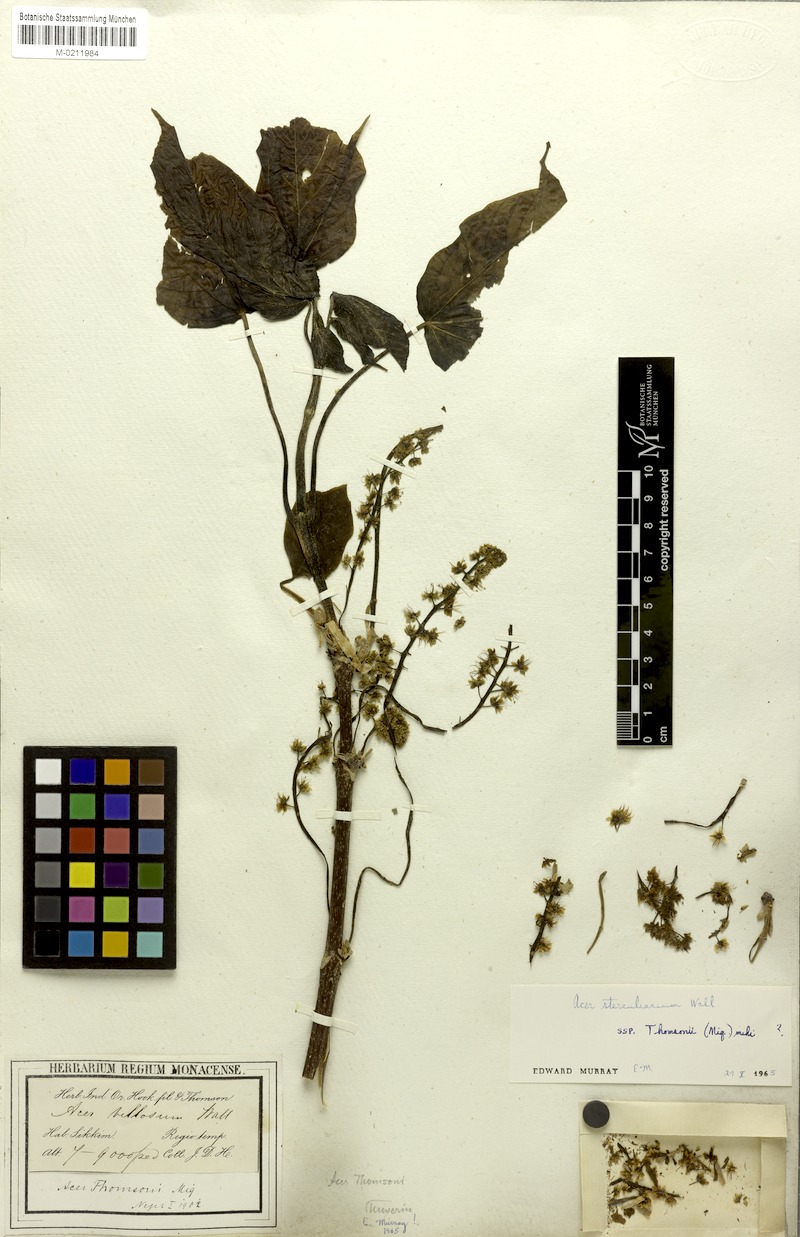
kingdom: Plantae
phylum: Tracheophyta
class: Magnoliopsida
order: Sapindales
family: Sapindaceae
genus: Acer
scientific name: Acer thomsonii
